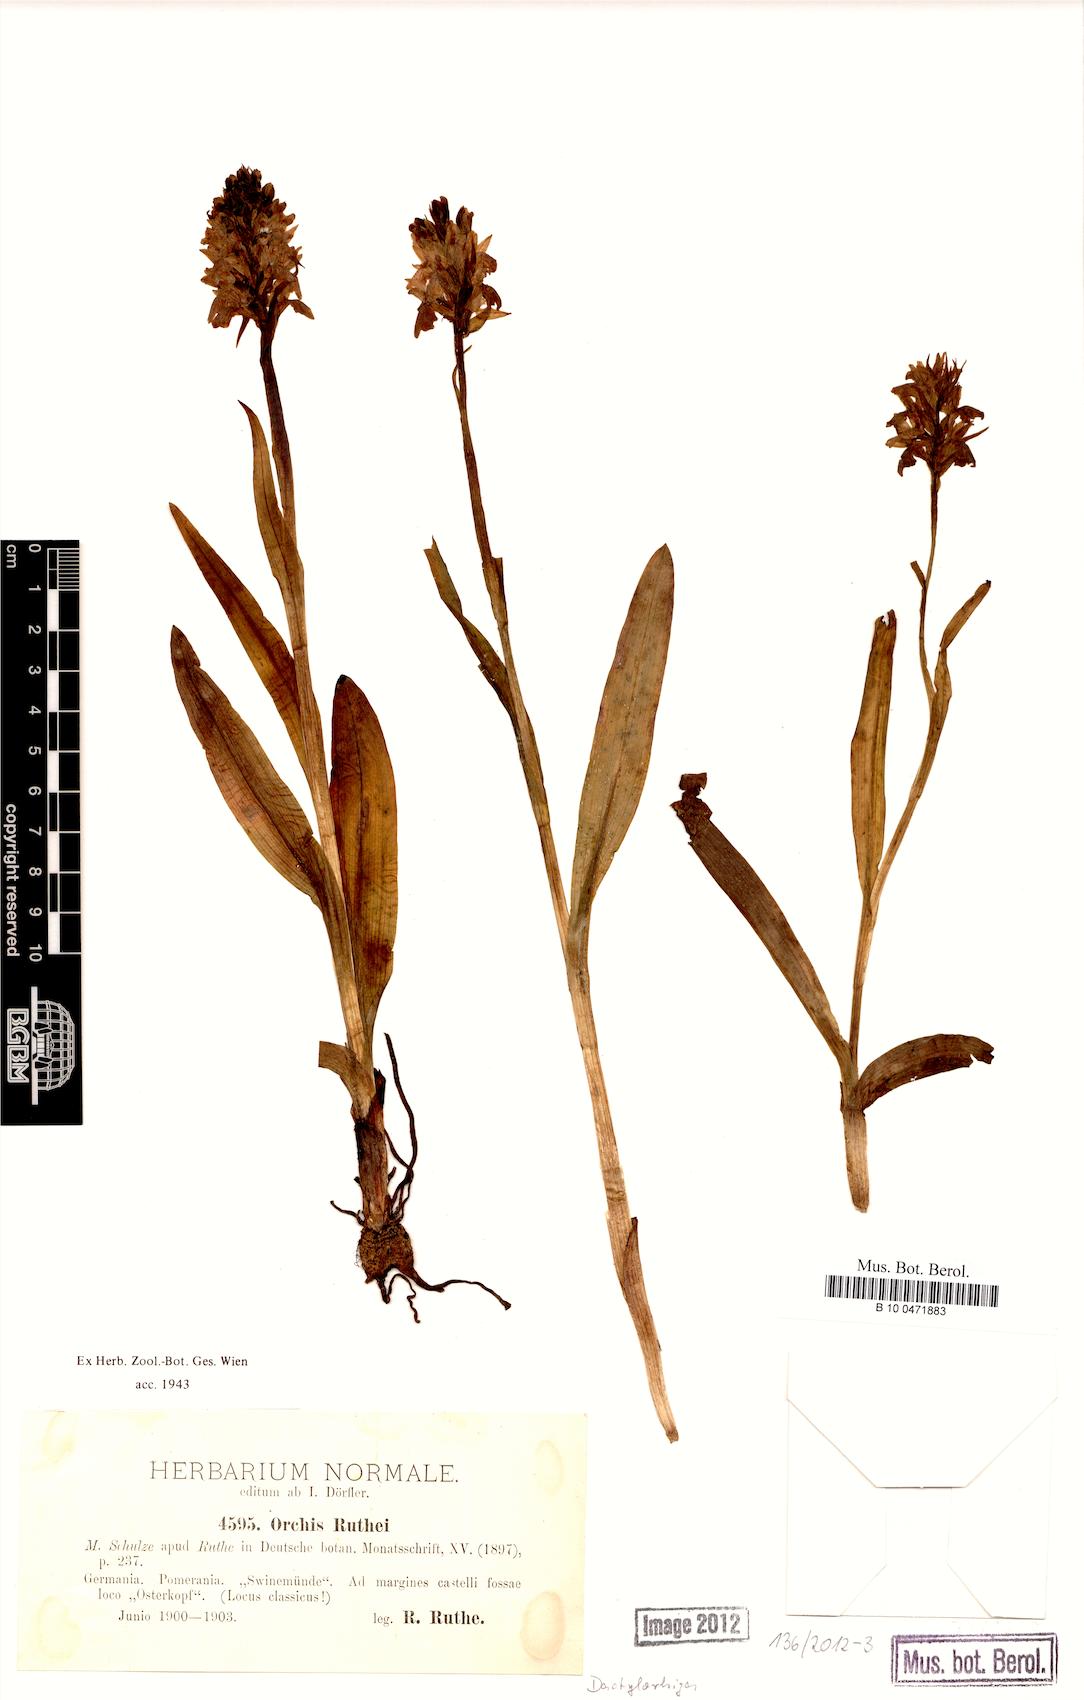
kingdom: Plantae
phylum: Tracheophyta
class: Liliopsida
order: Asparagales
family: Orchidaceae
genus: Dactylorhiza
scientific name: Dactylorhiza kerneriorum
